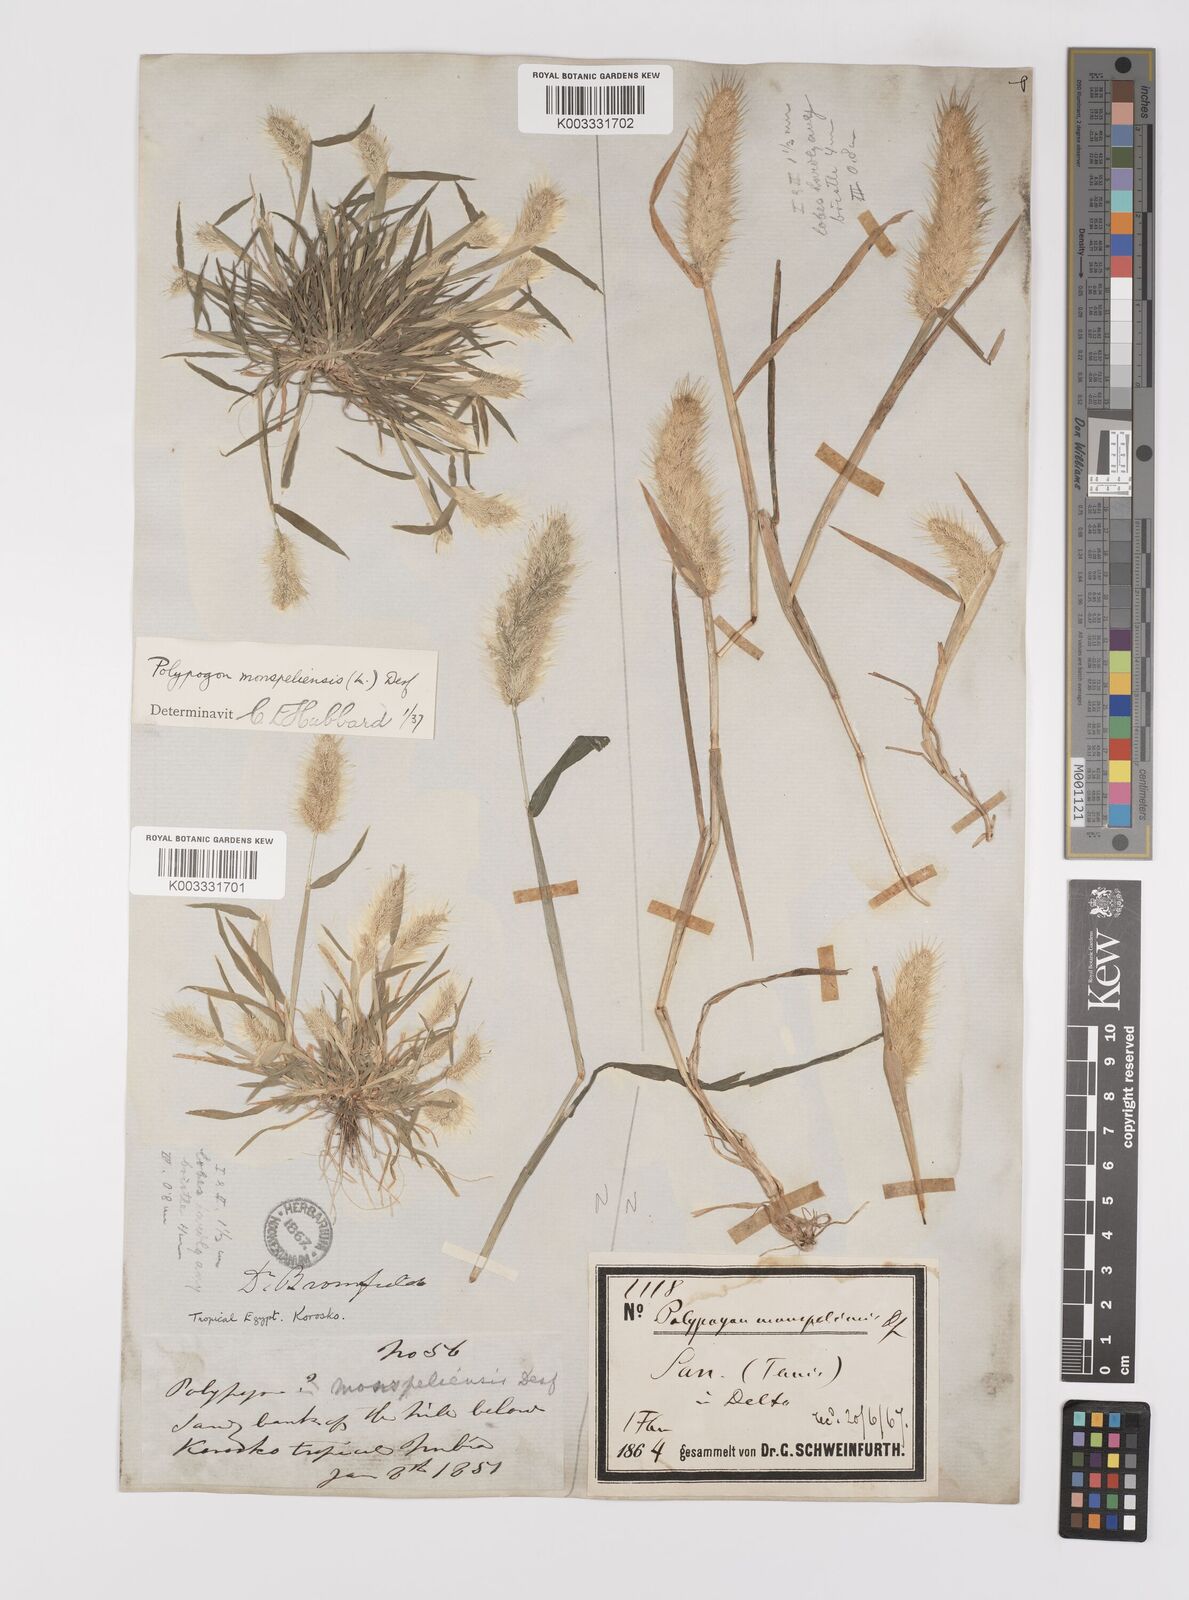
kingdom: Plantae
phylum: Tracheophyta
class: Liliopsida
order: Poales
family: Poaceae
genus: Polypogon
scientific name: Polypogon monspeliensis
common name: Annual rabbitsfoot grass
